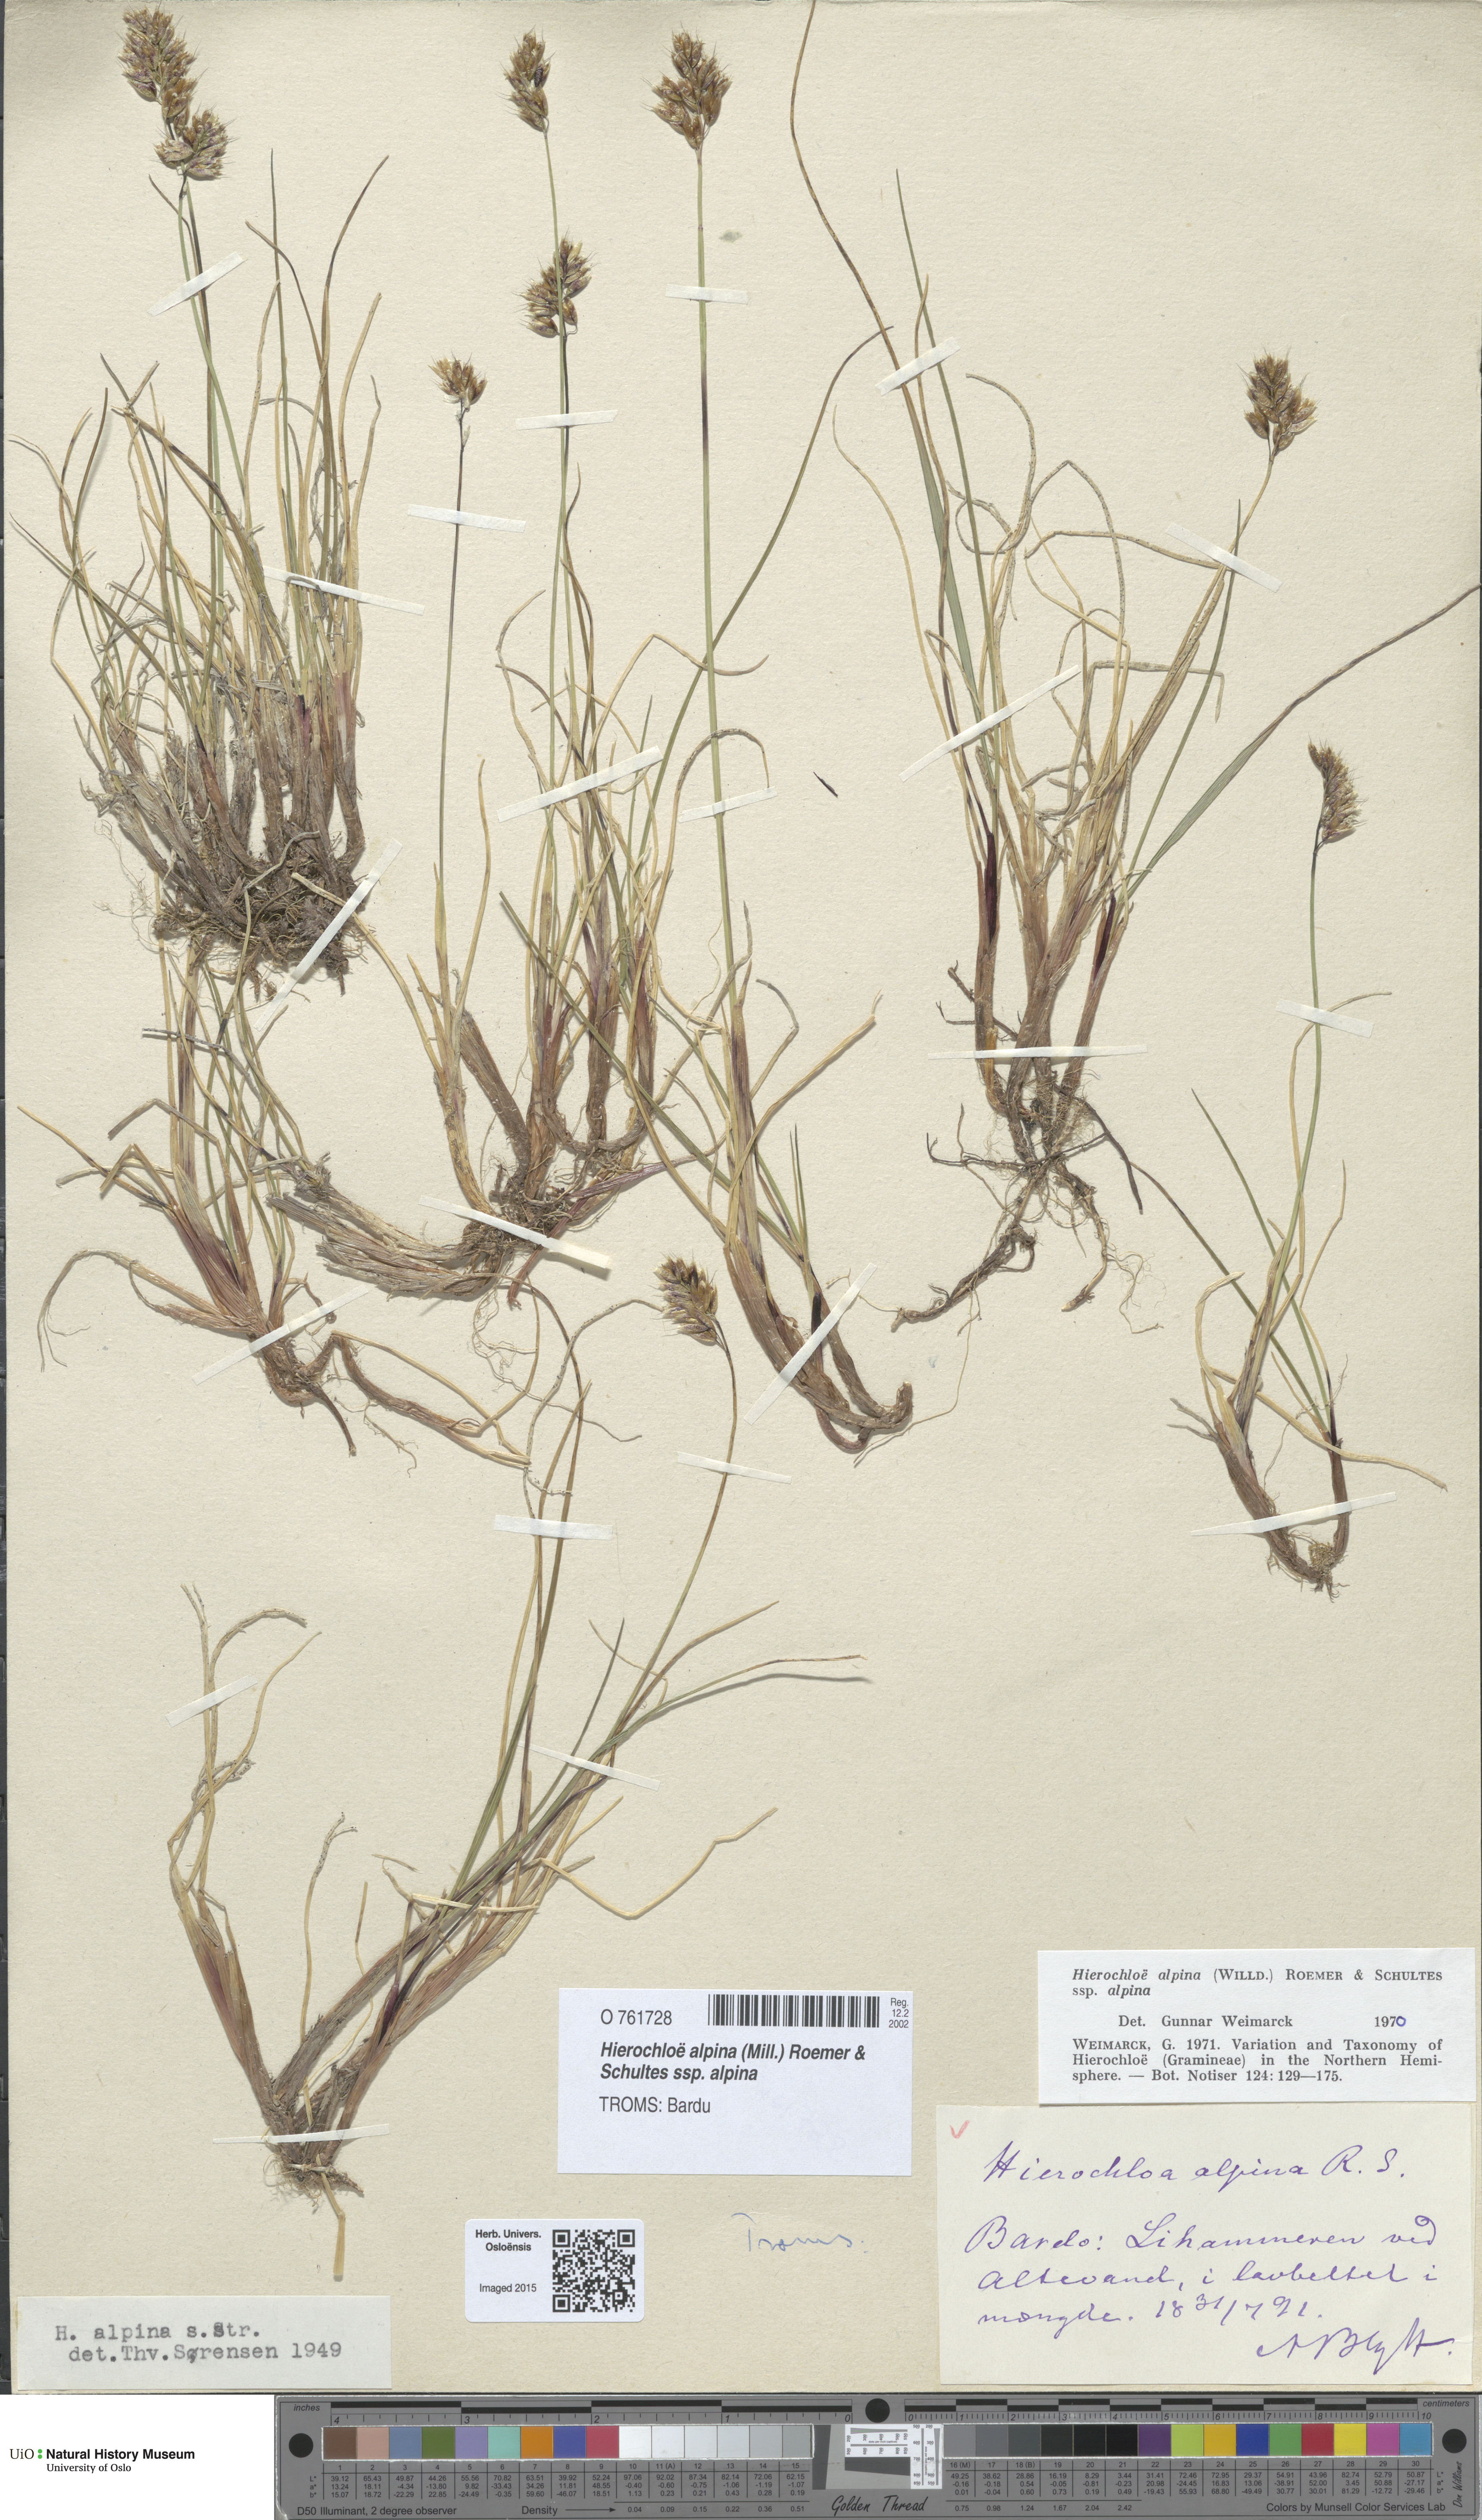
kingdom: Plantae
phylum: Tracheophyta
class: Liliopsida
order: Poales
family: Poaceae
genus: Anthoxanthum
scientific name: Anthoxanthum monticola
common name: Alpine sweetgrass
